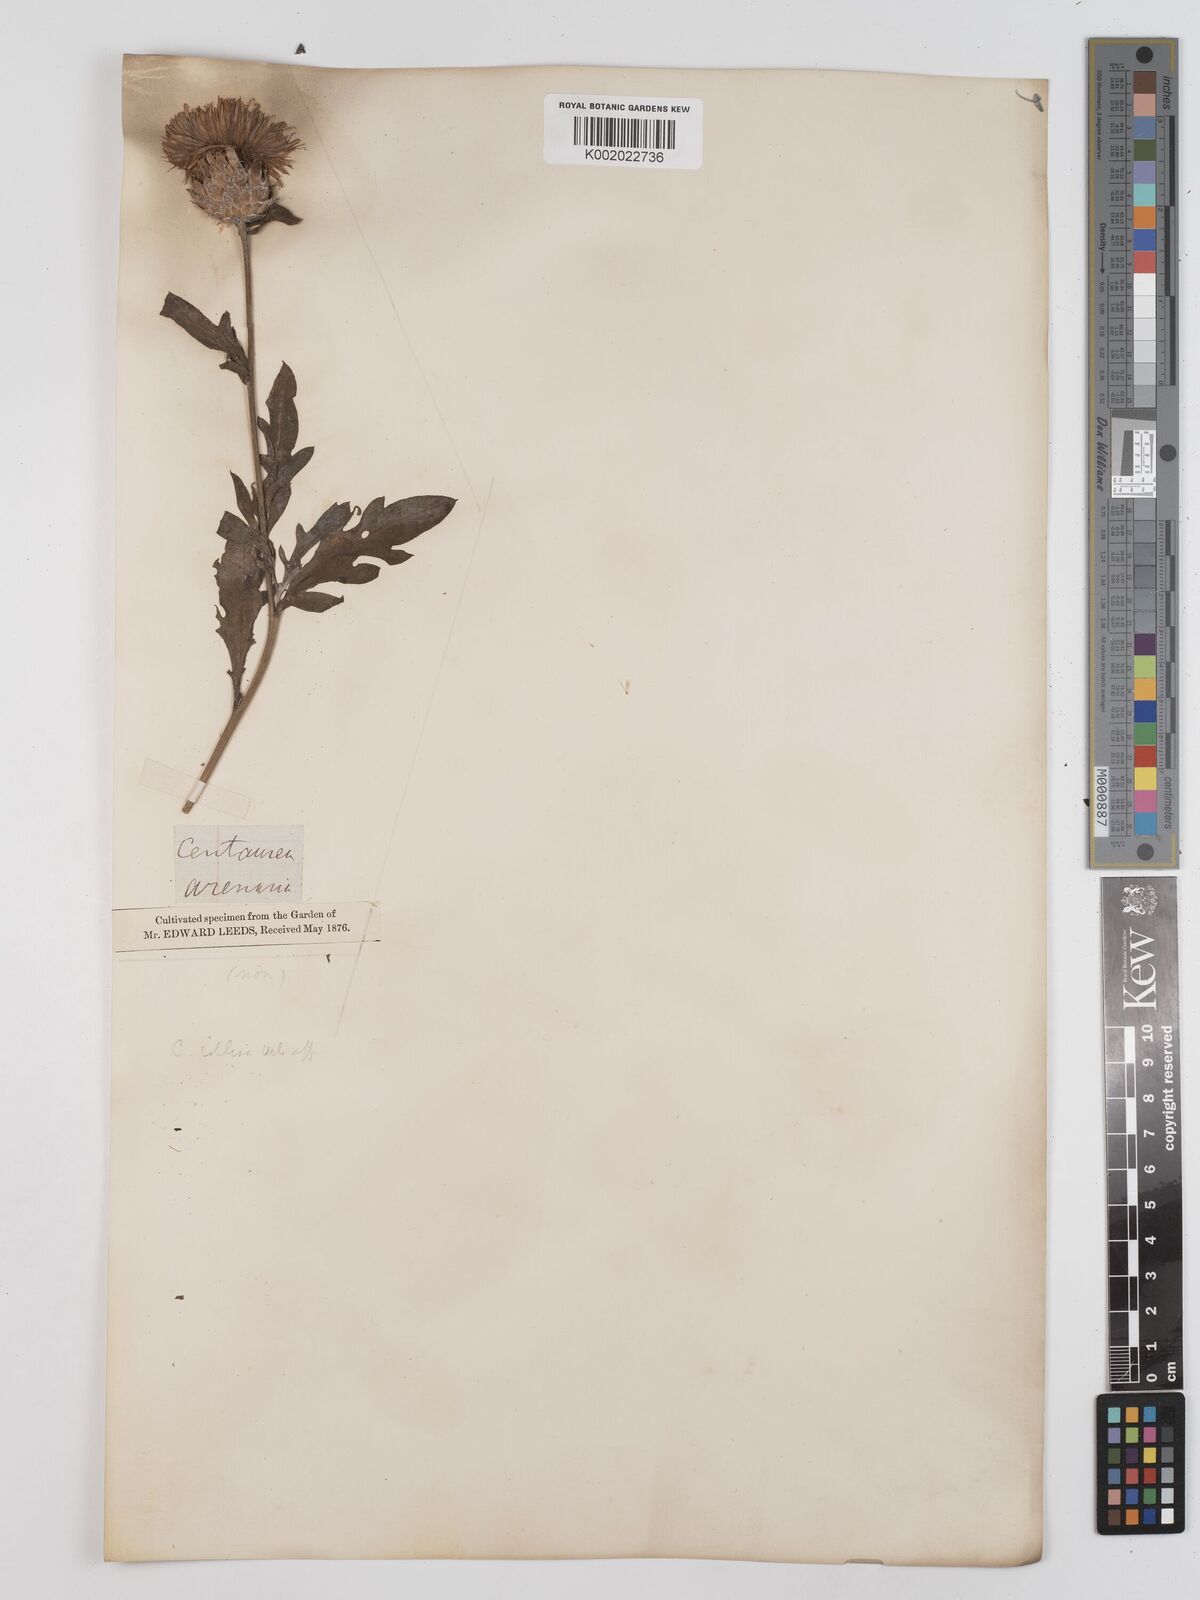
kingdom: Plantae
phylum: Tracheophyta
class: Magnoliopsida
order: Asterales
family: Asteraceae
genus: Centaurea
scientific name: Centaurea
